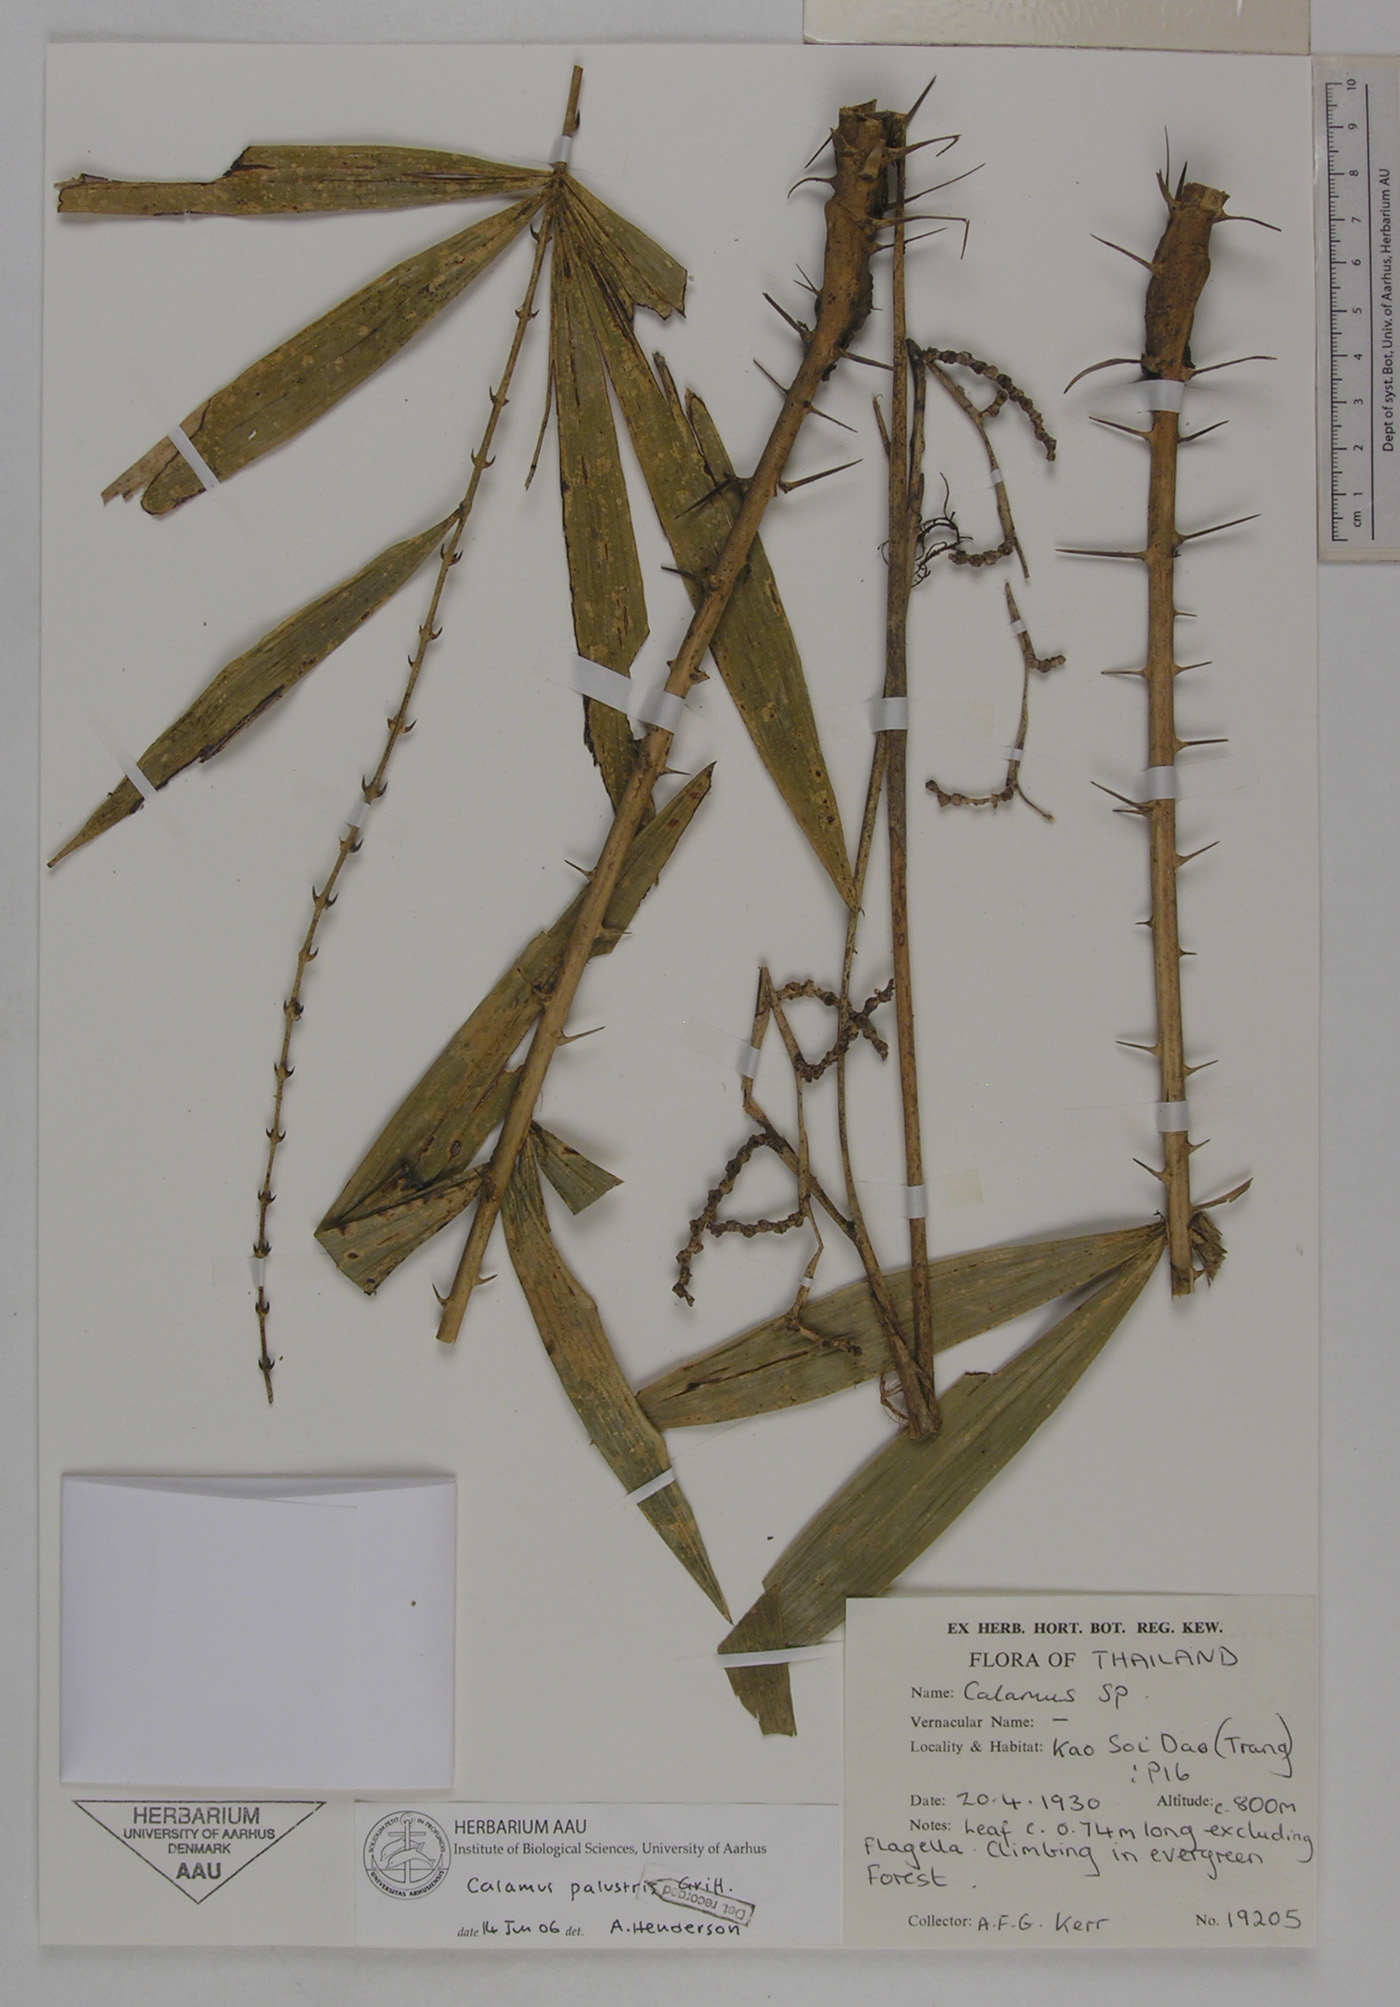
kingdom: Plantae
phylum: Tracheophyta
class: Liliopsida
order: Arecales
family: Arecaceae
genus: Calamus
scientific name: Calamus latifolius
